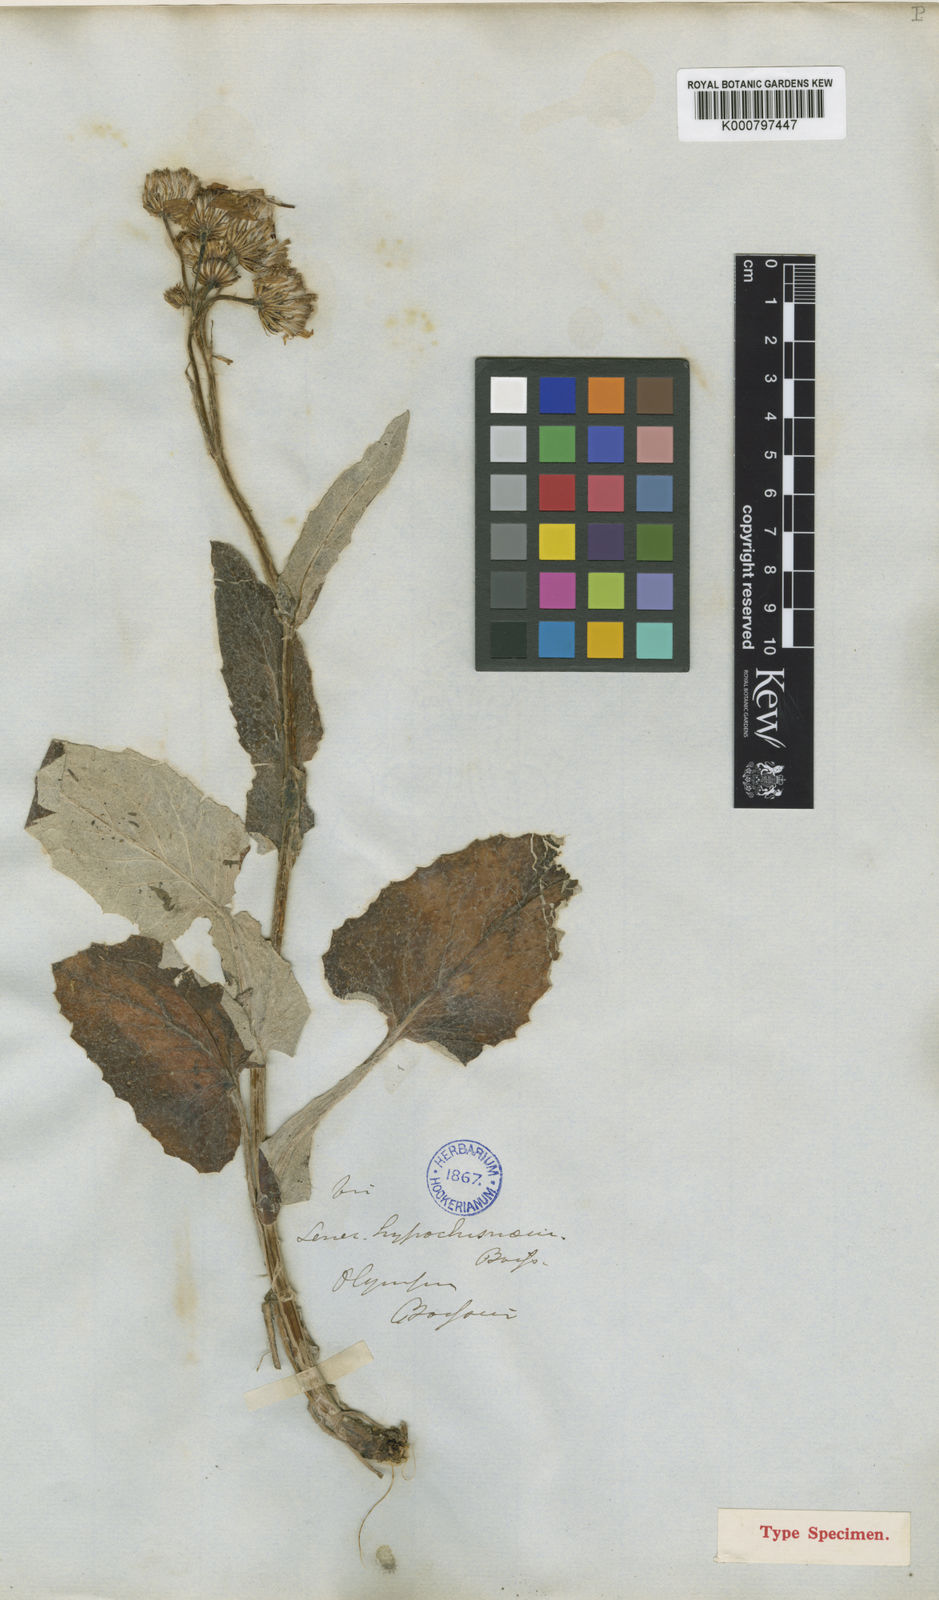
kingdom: Plantae
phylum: Tracheophyta
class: Magnoliopsida
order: Asterales
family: Asteraceae
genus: Turanecio
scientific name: Turanecio hypochionaeus
